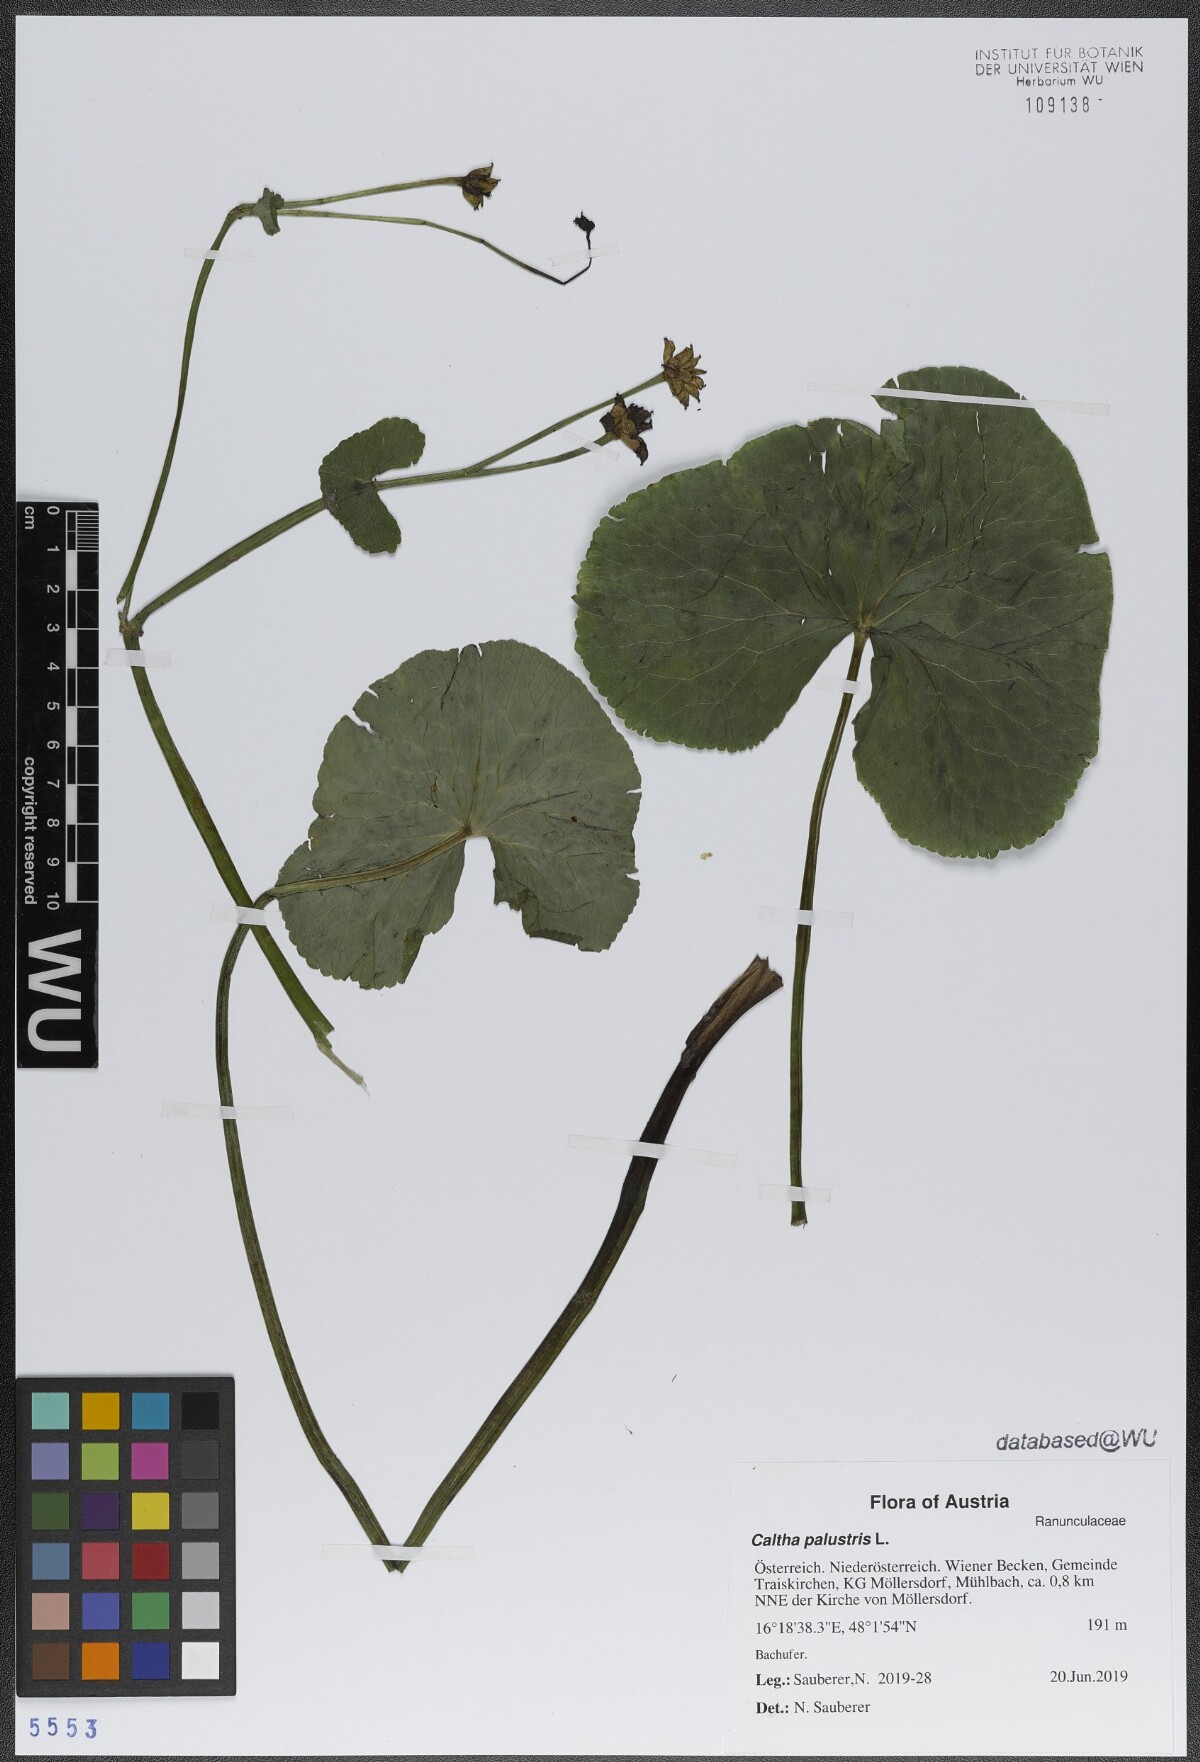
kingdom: Plantae
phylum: Tracheophyta
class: Magnoliopsida
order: Ranunculales
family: Ranunculaceae
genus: Caltha
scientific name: Caltha palustris
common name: Marsh marigold
